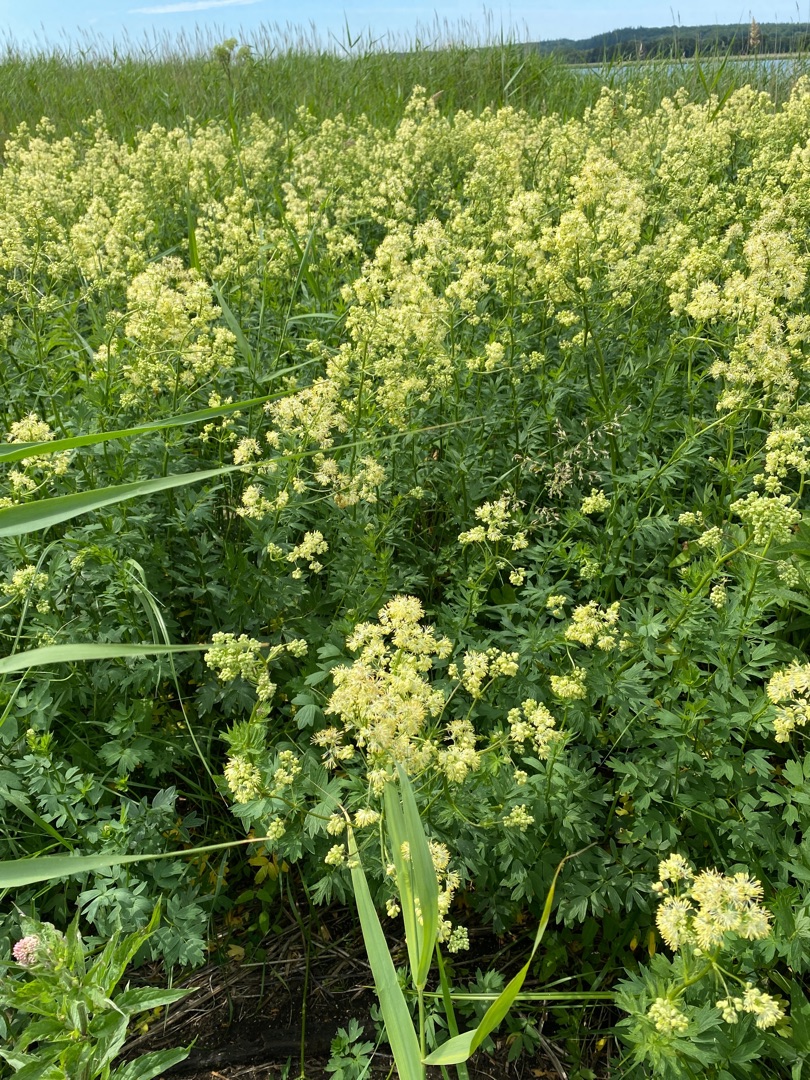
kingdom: Plantae
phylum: Tracheophyta
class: Magnoliopsida
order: Ranunculales
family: Ranunculaceae
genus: Thalictrum
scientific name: Thalictrum flavum
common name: Gul frøstjerne
